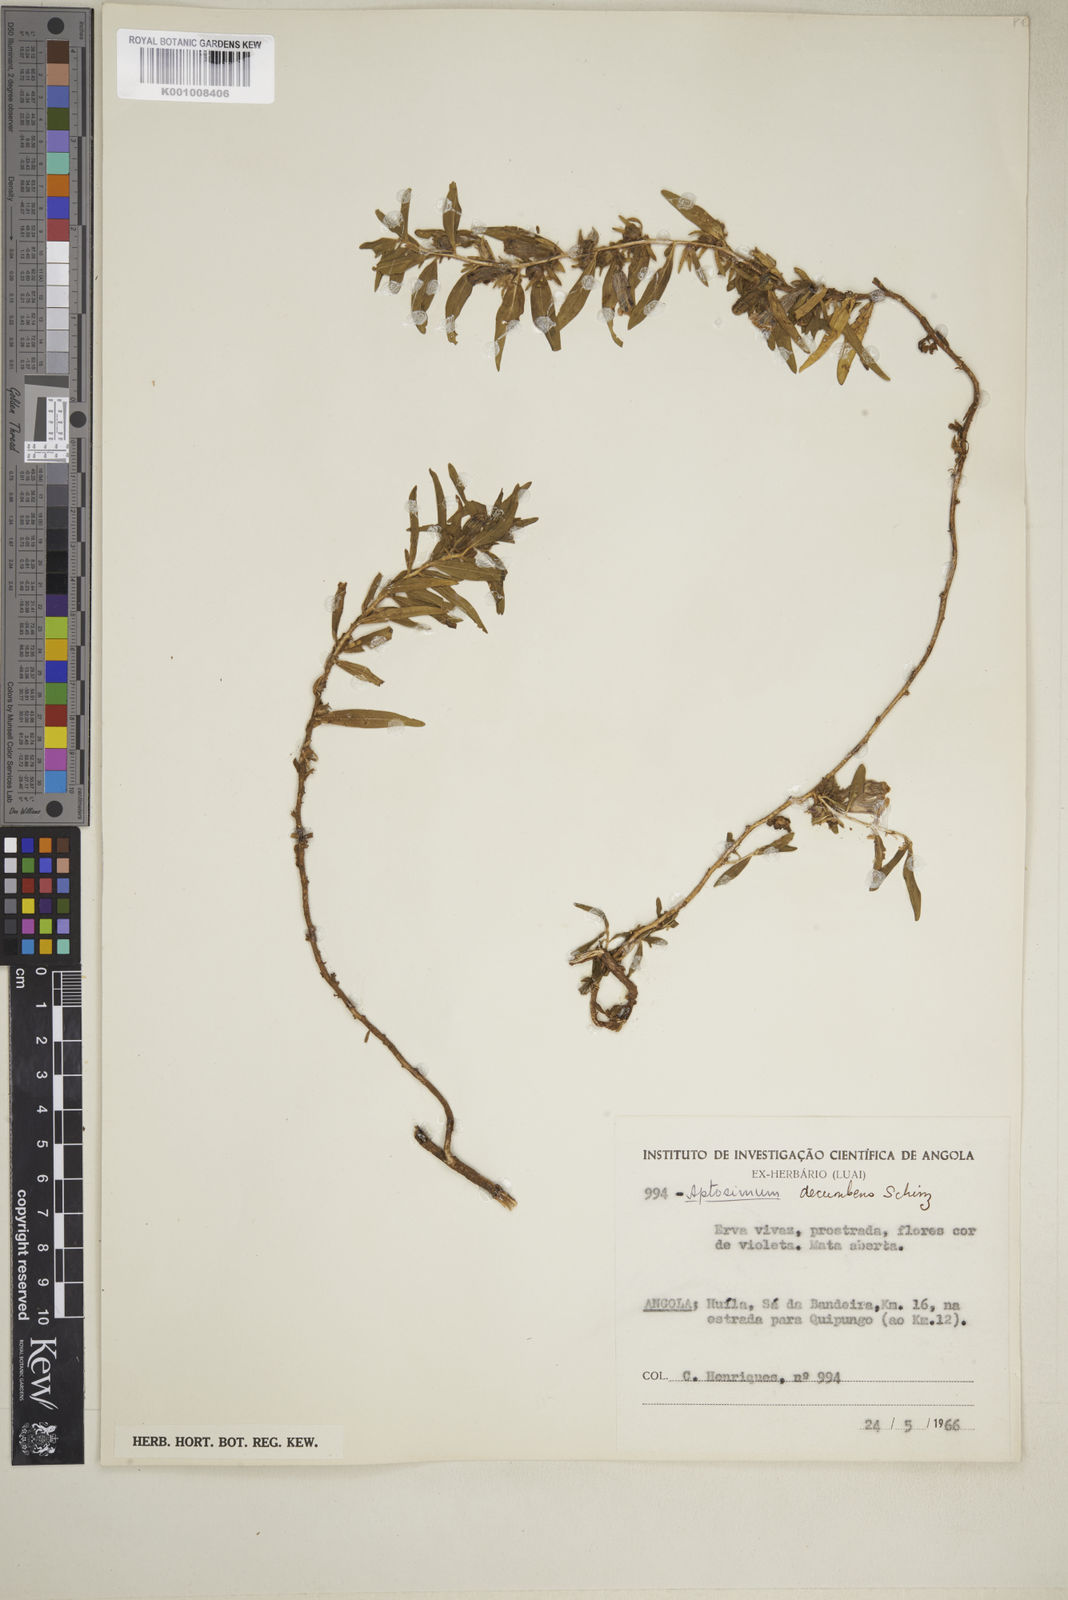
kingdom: Plantae
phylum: Tracheophyta
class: Magnoliopsida
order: Lamiales
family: Scrophulariaceae
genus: Aptosimum
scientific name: Aptosimum decumbens
